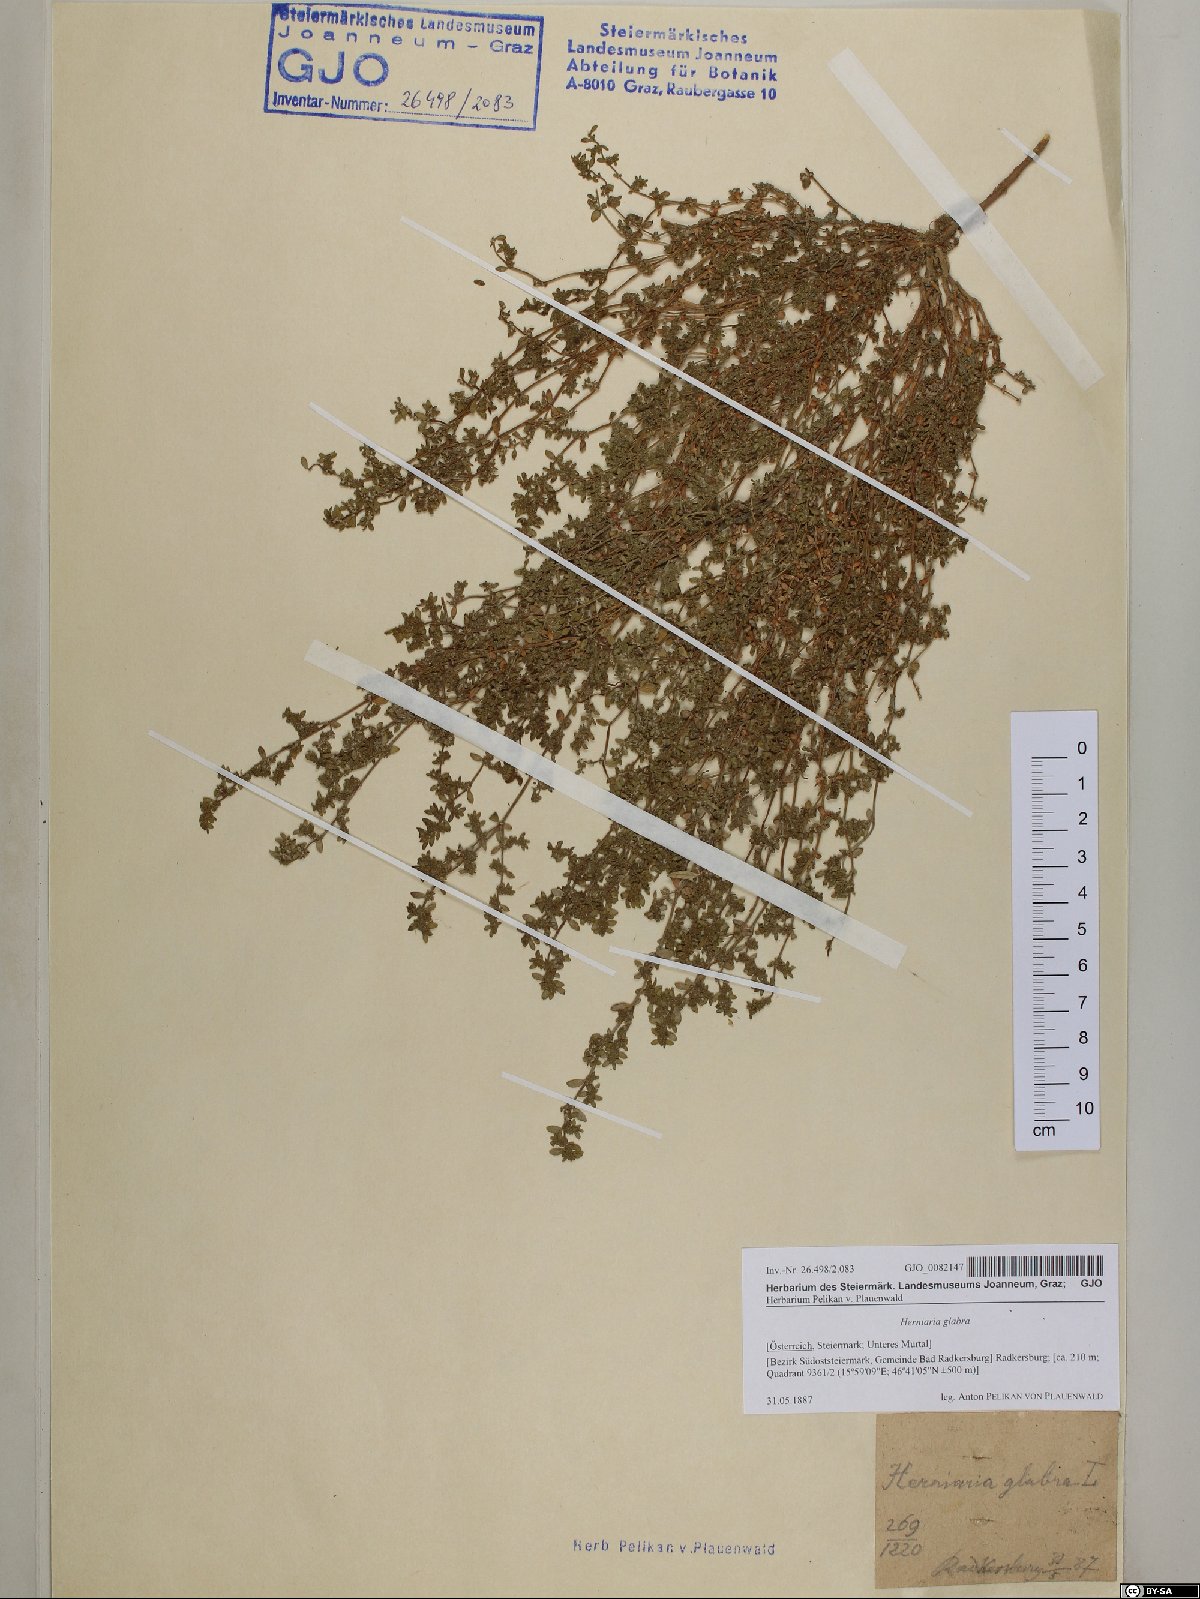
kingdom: Plantae
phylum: Tracheophyta
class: Magnoliopsida
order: Caryophyllales
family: Caryophyllaceae
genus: Herniaria
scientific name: Herniaria glabra
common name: Smooth rupturewort
